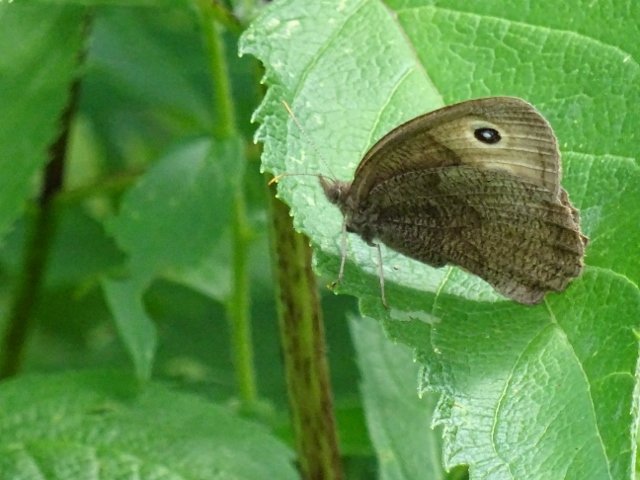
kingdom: Animalia
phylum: Arthropoda
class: Insecta
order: Lepidoptera
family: Nymphalidae
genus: Cercyonis
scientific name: Cercyonis pegala
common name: Common Wood-Nymph
